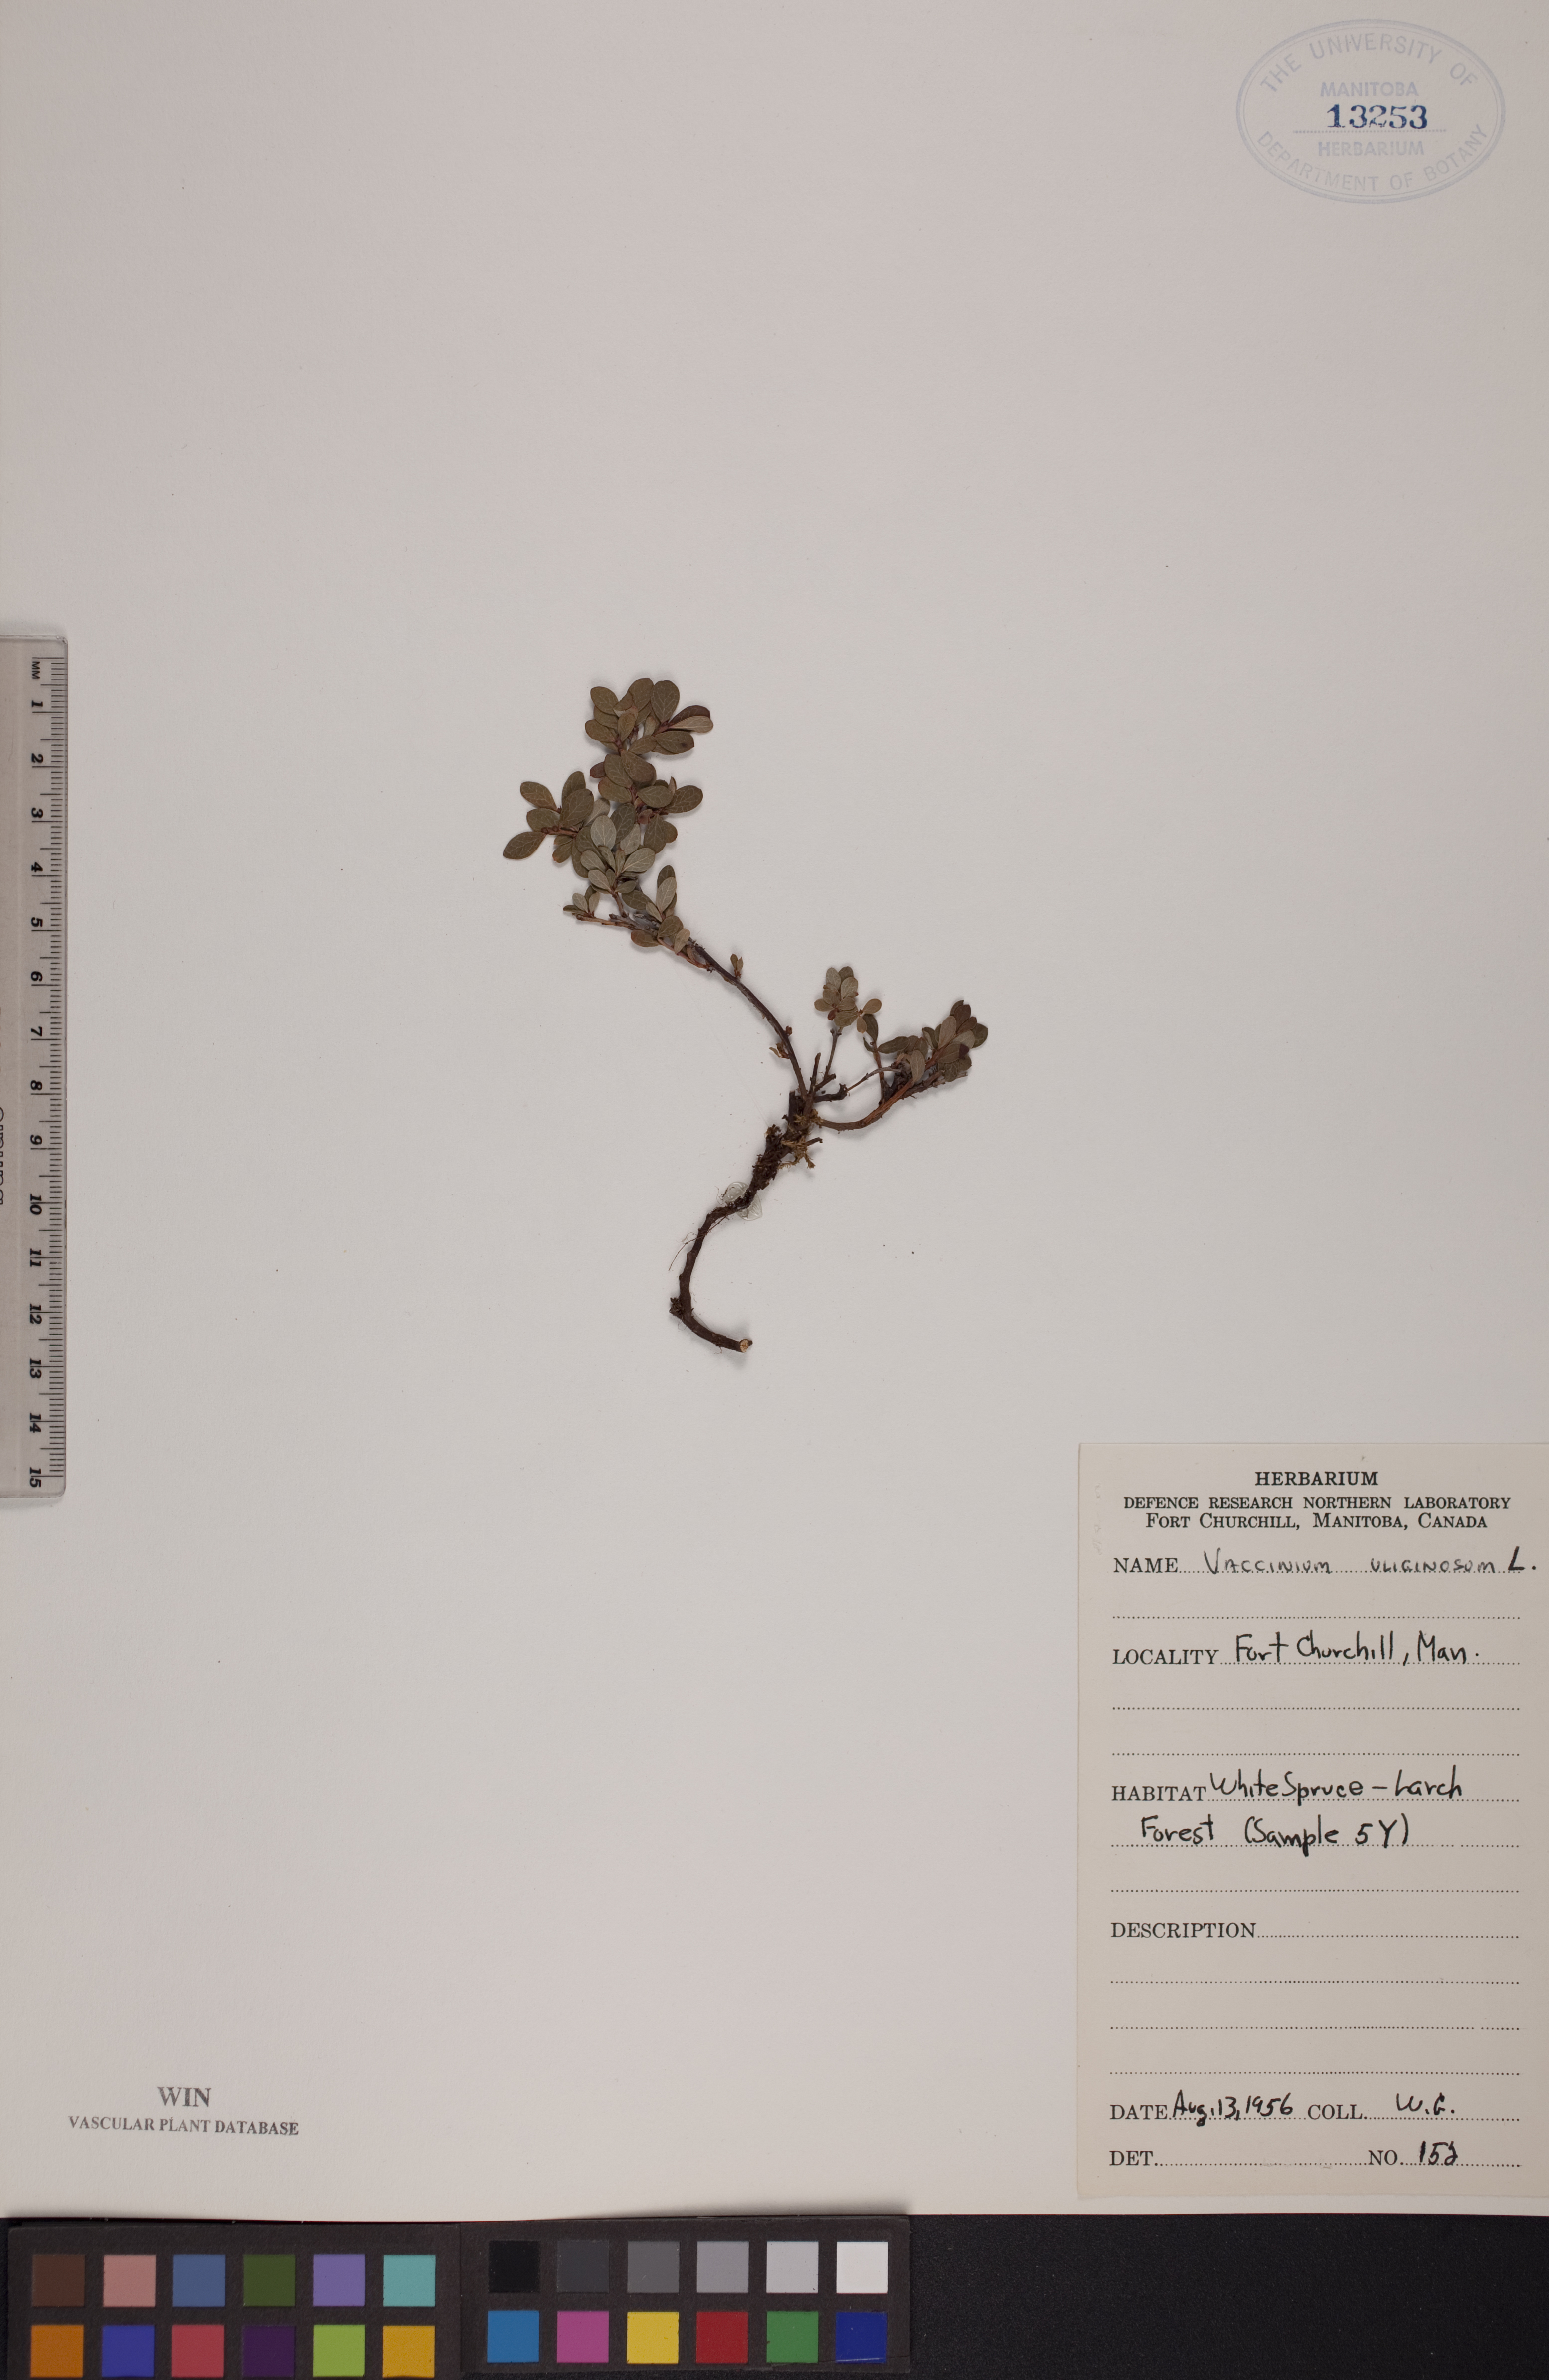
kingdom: Plantae
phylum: Tracheophyta
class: Magnoliopsida
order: Ericales
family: Ericaceae
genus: Vaccinium
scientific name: Vaccinium uliginosum
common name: Bog bilberry
